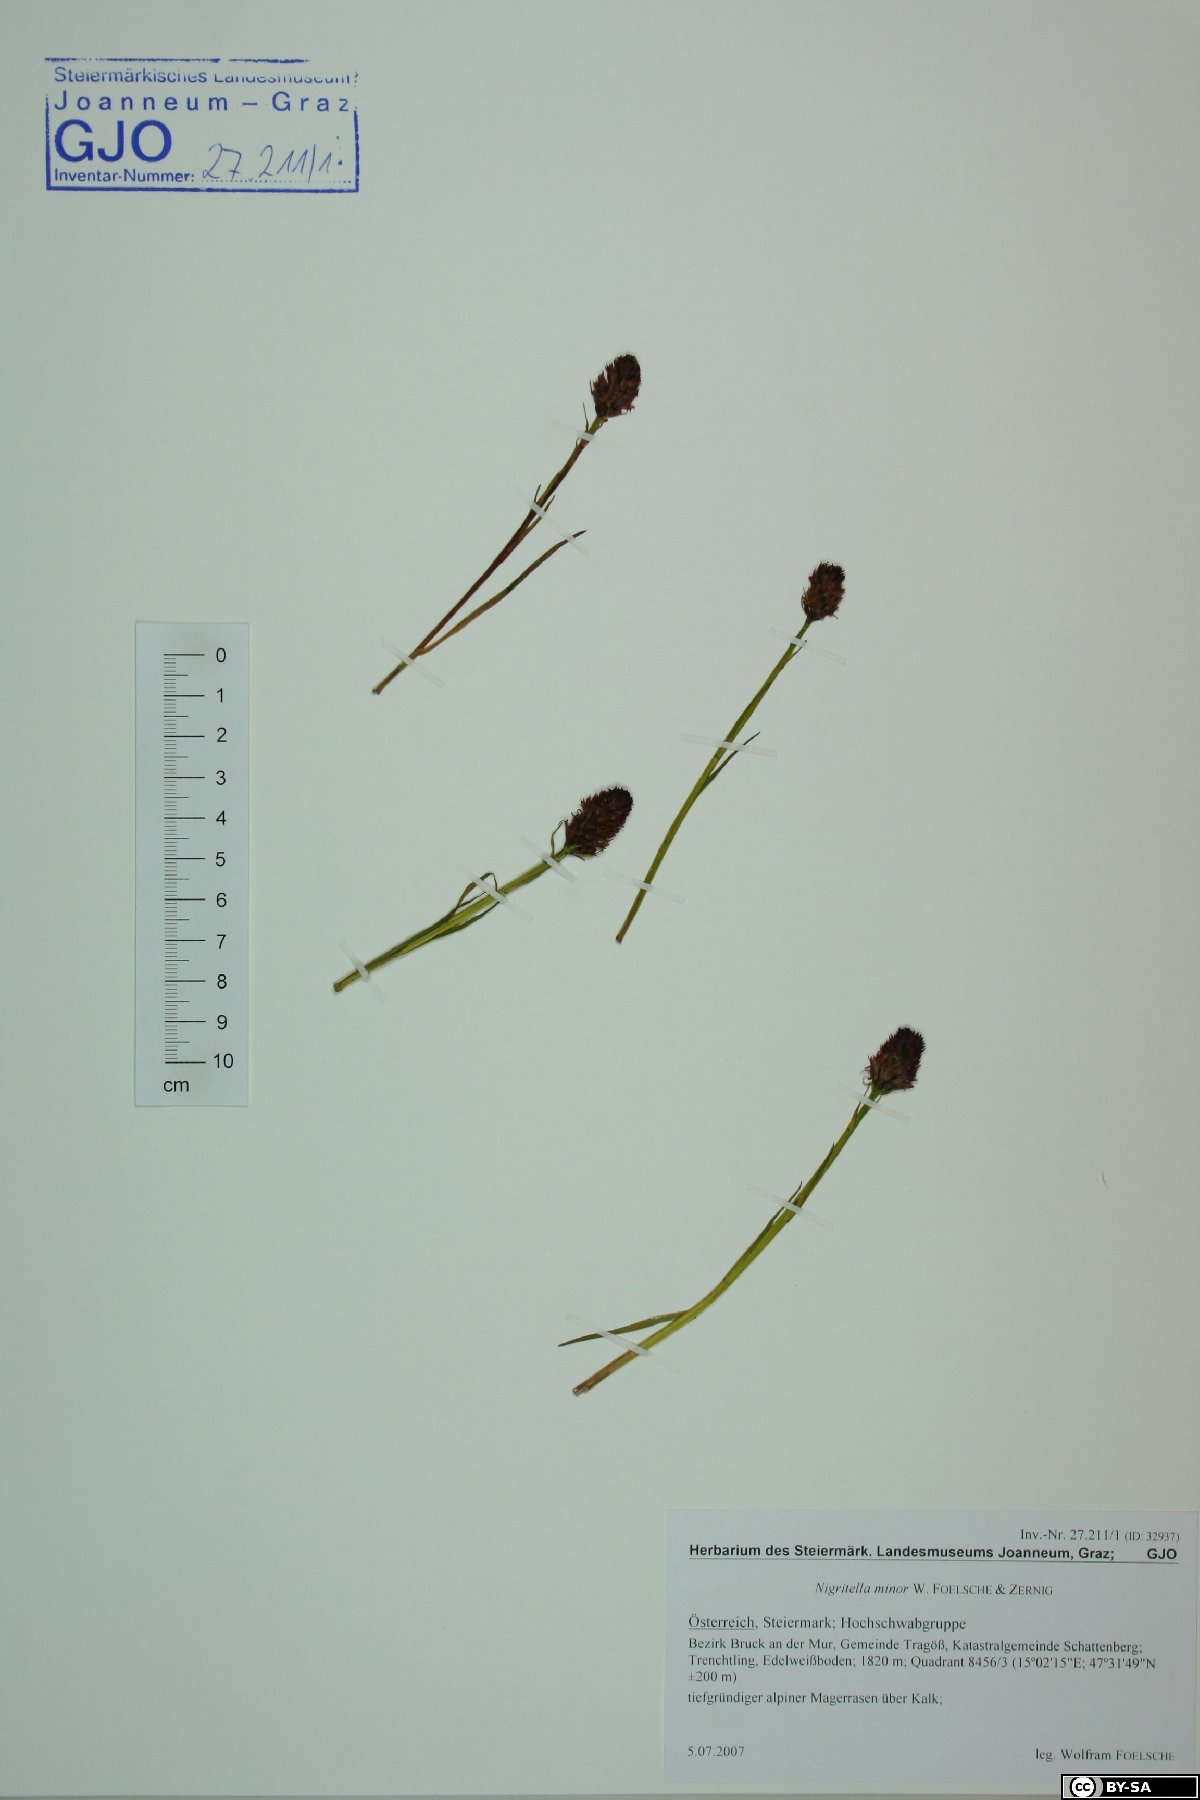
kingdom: Plantae
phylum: Tracheophyta
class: Liliopsida
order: Asparagales
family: Orchidaceae
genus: Gymnadenia
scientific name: Gymnadenia miniata
